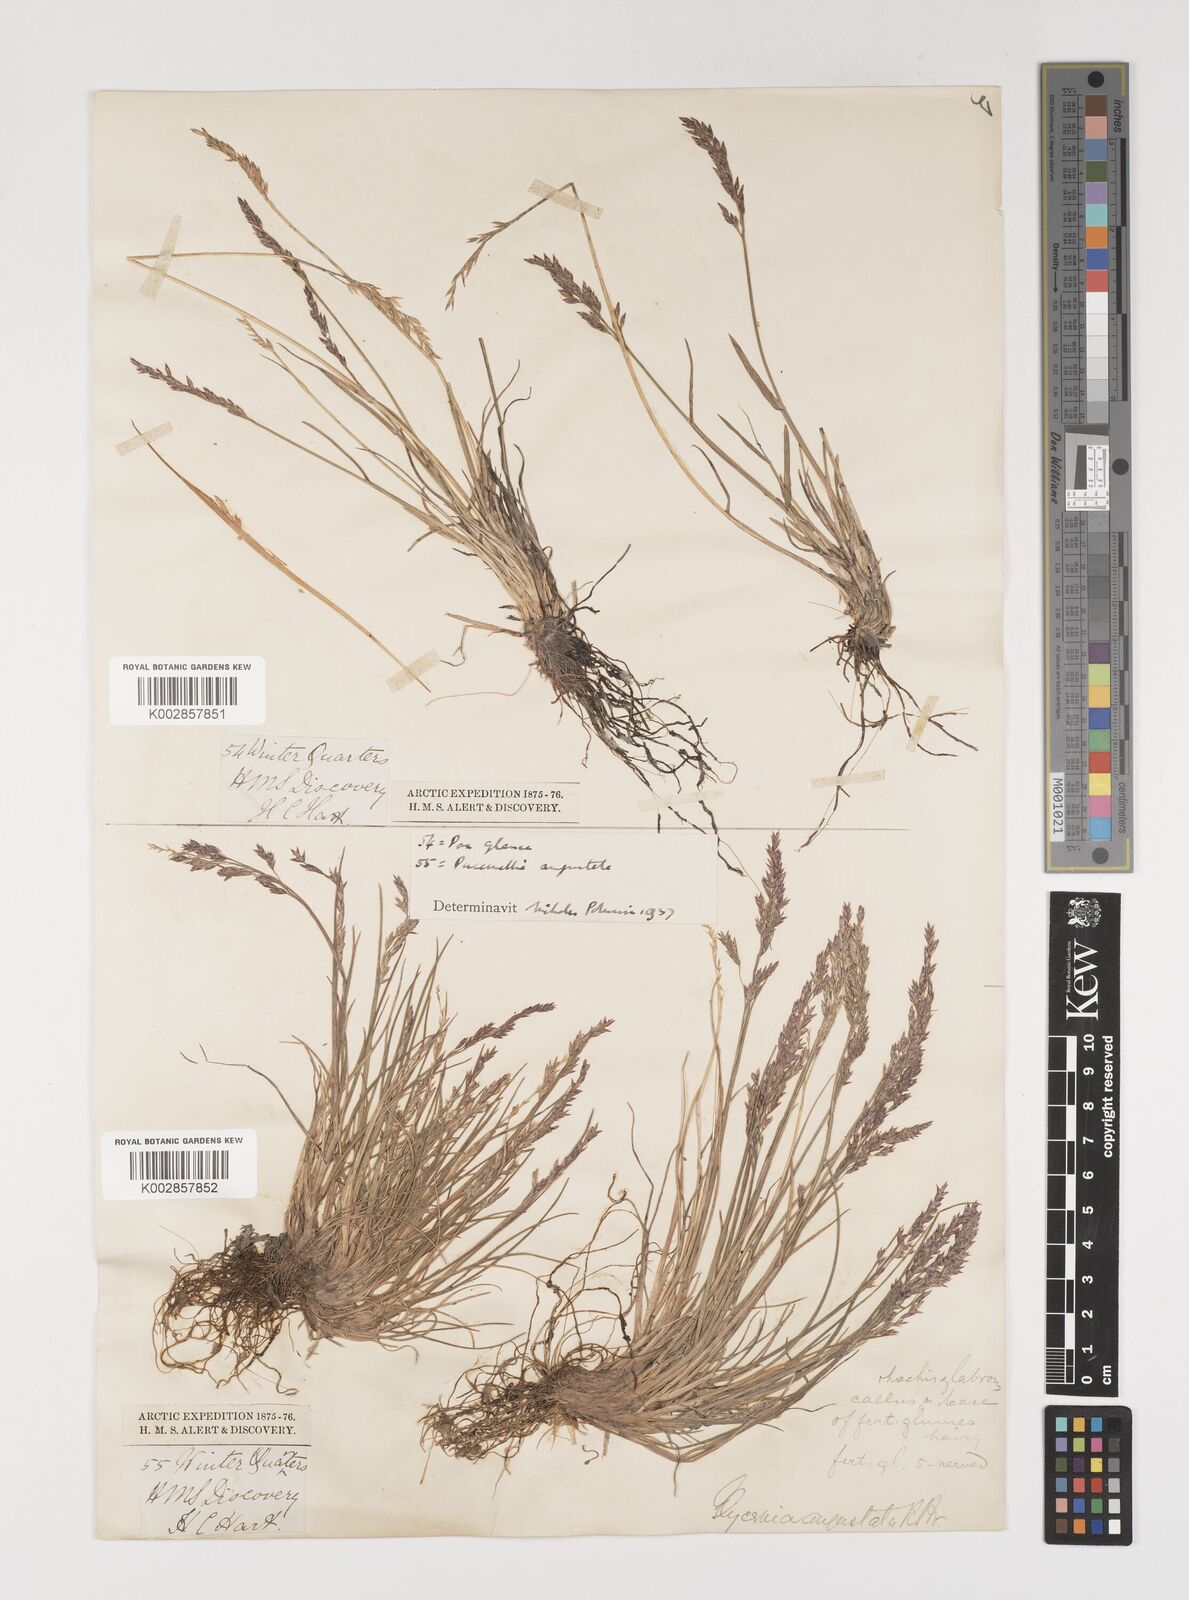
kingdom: Plantae
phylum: Tracheophyta
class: Liliopsida
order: Poales
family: Poaceae
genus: Puccinellia
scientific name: Puccinellia vaginata
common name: Arctic tussock alkaligrass
